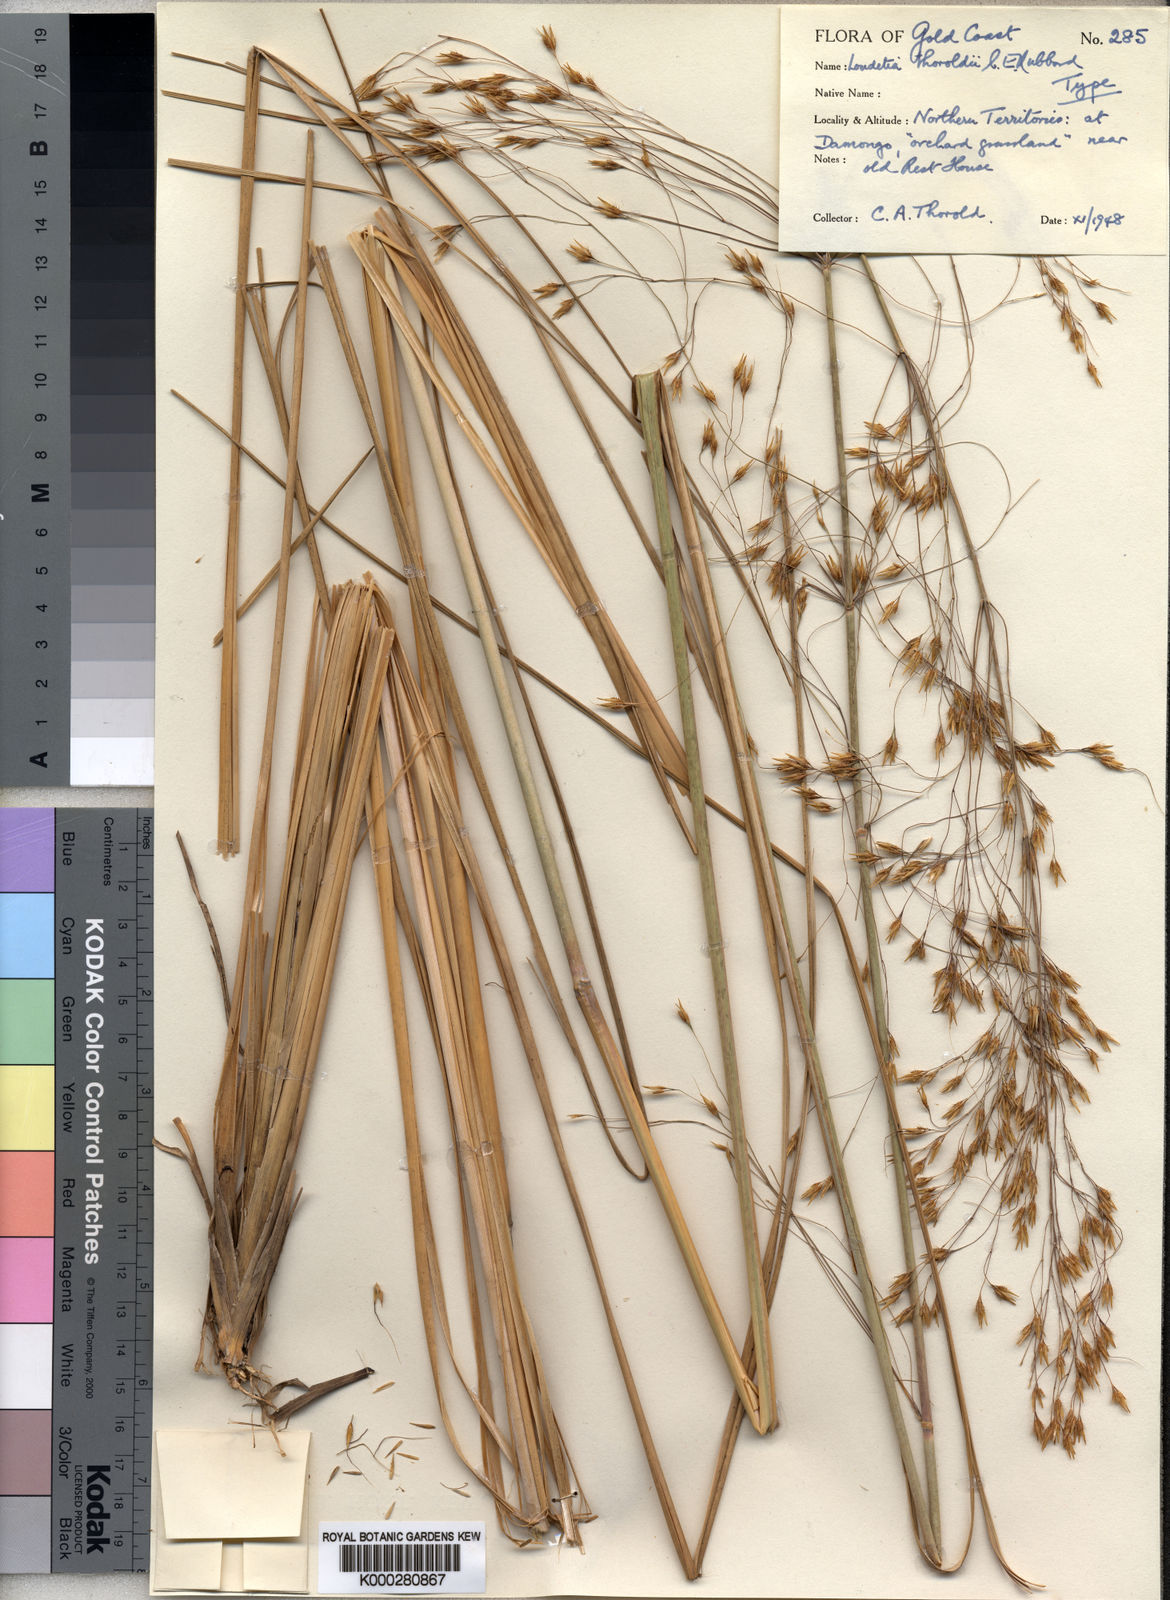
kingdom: Plantae
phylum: Tracheophyta
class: Liliopsida
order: Poales
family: Poaceae
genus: Loudetiopsis
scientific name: Loudetiopsis thoroldii
